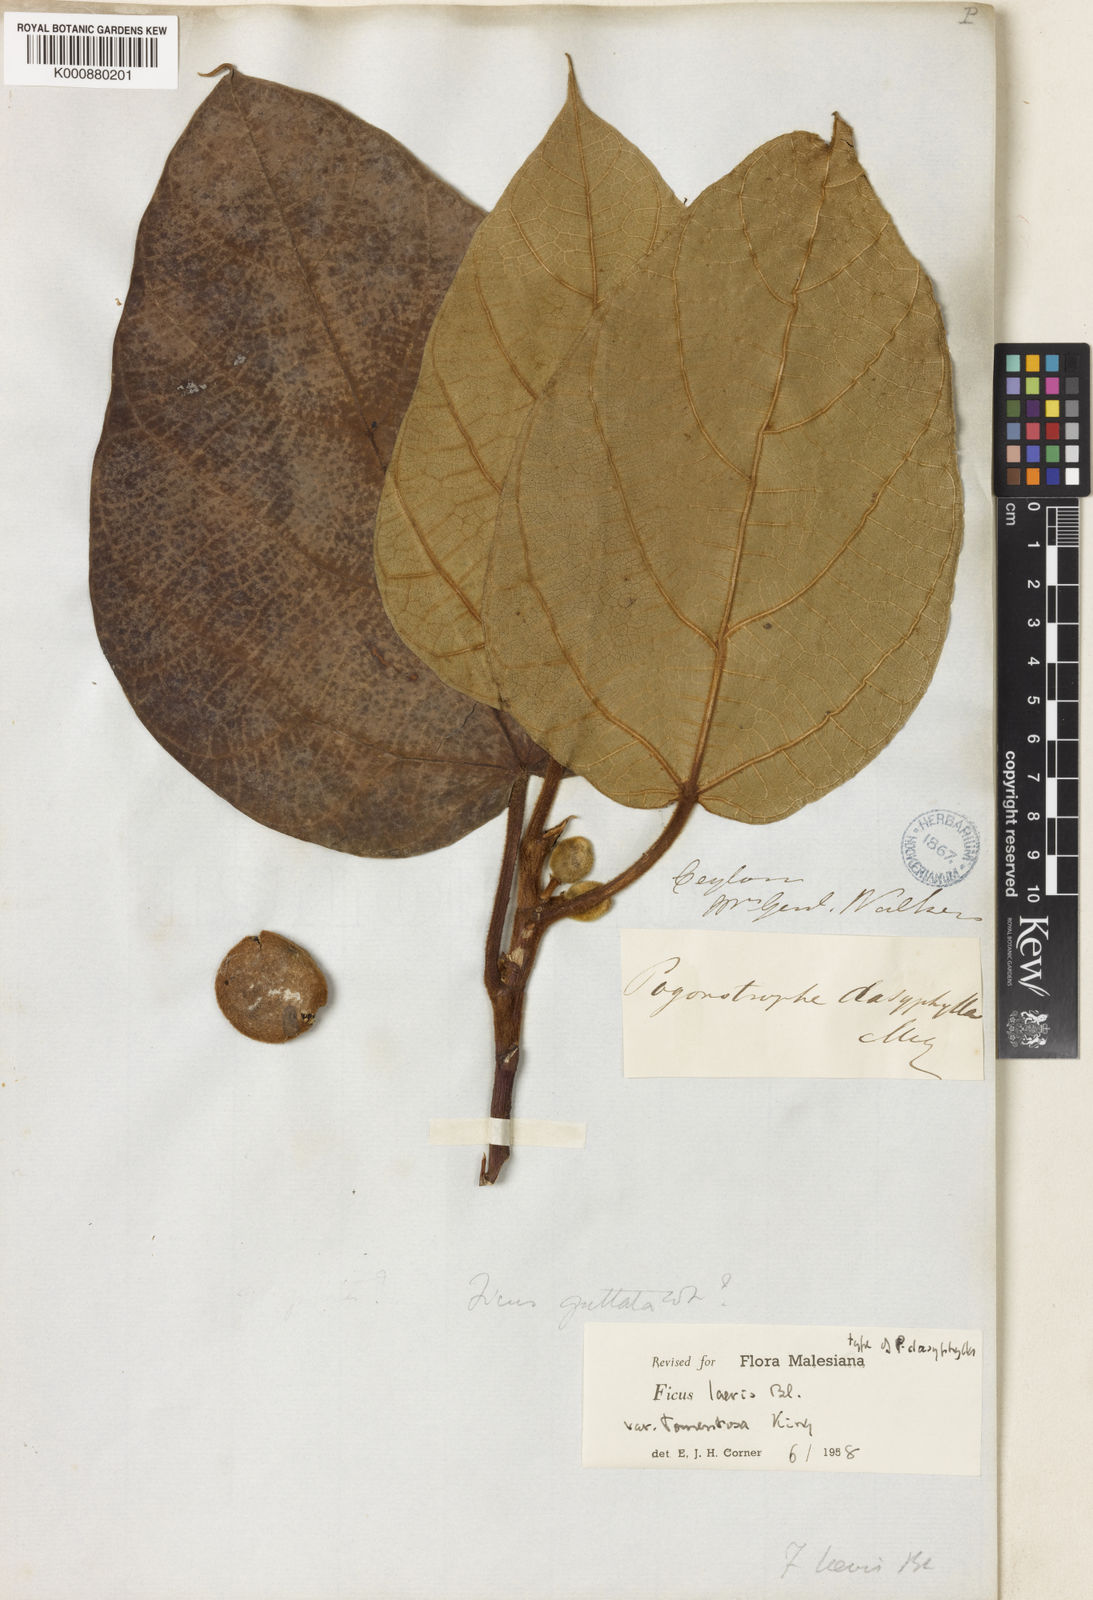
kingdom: Plantae
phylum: Tracheophyta
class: Magnoliopsida
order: Rosales
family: Moraceae
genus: Ficus
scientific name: Ficus laevis
